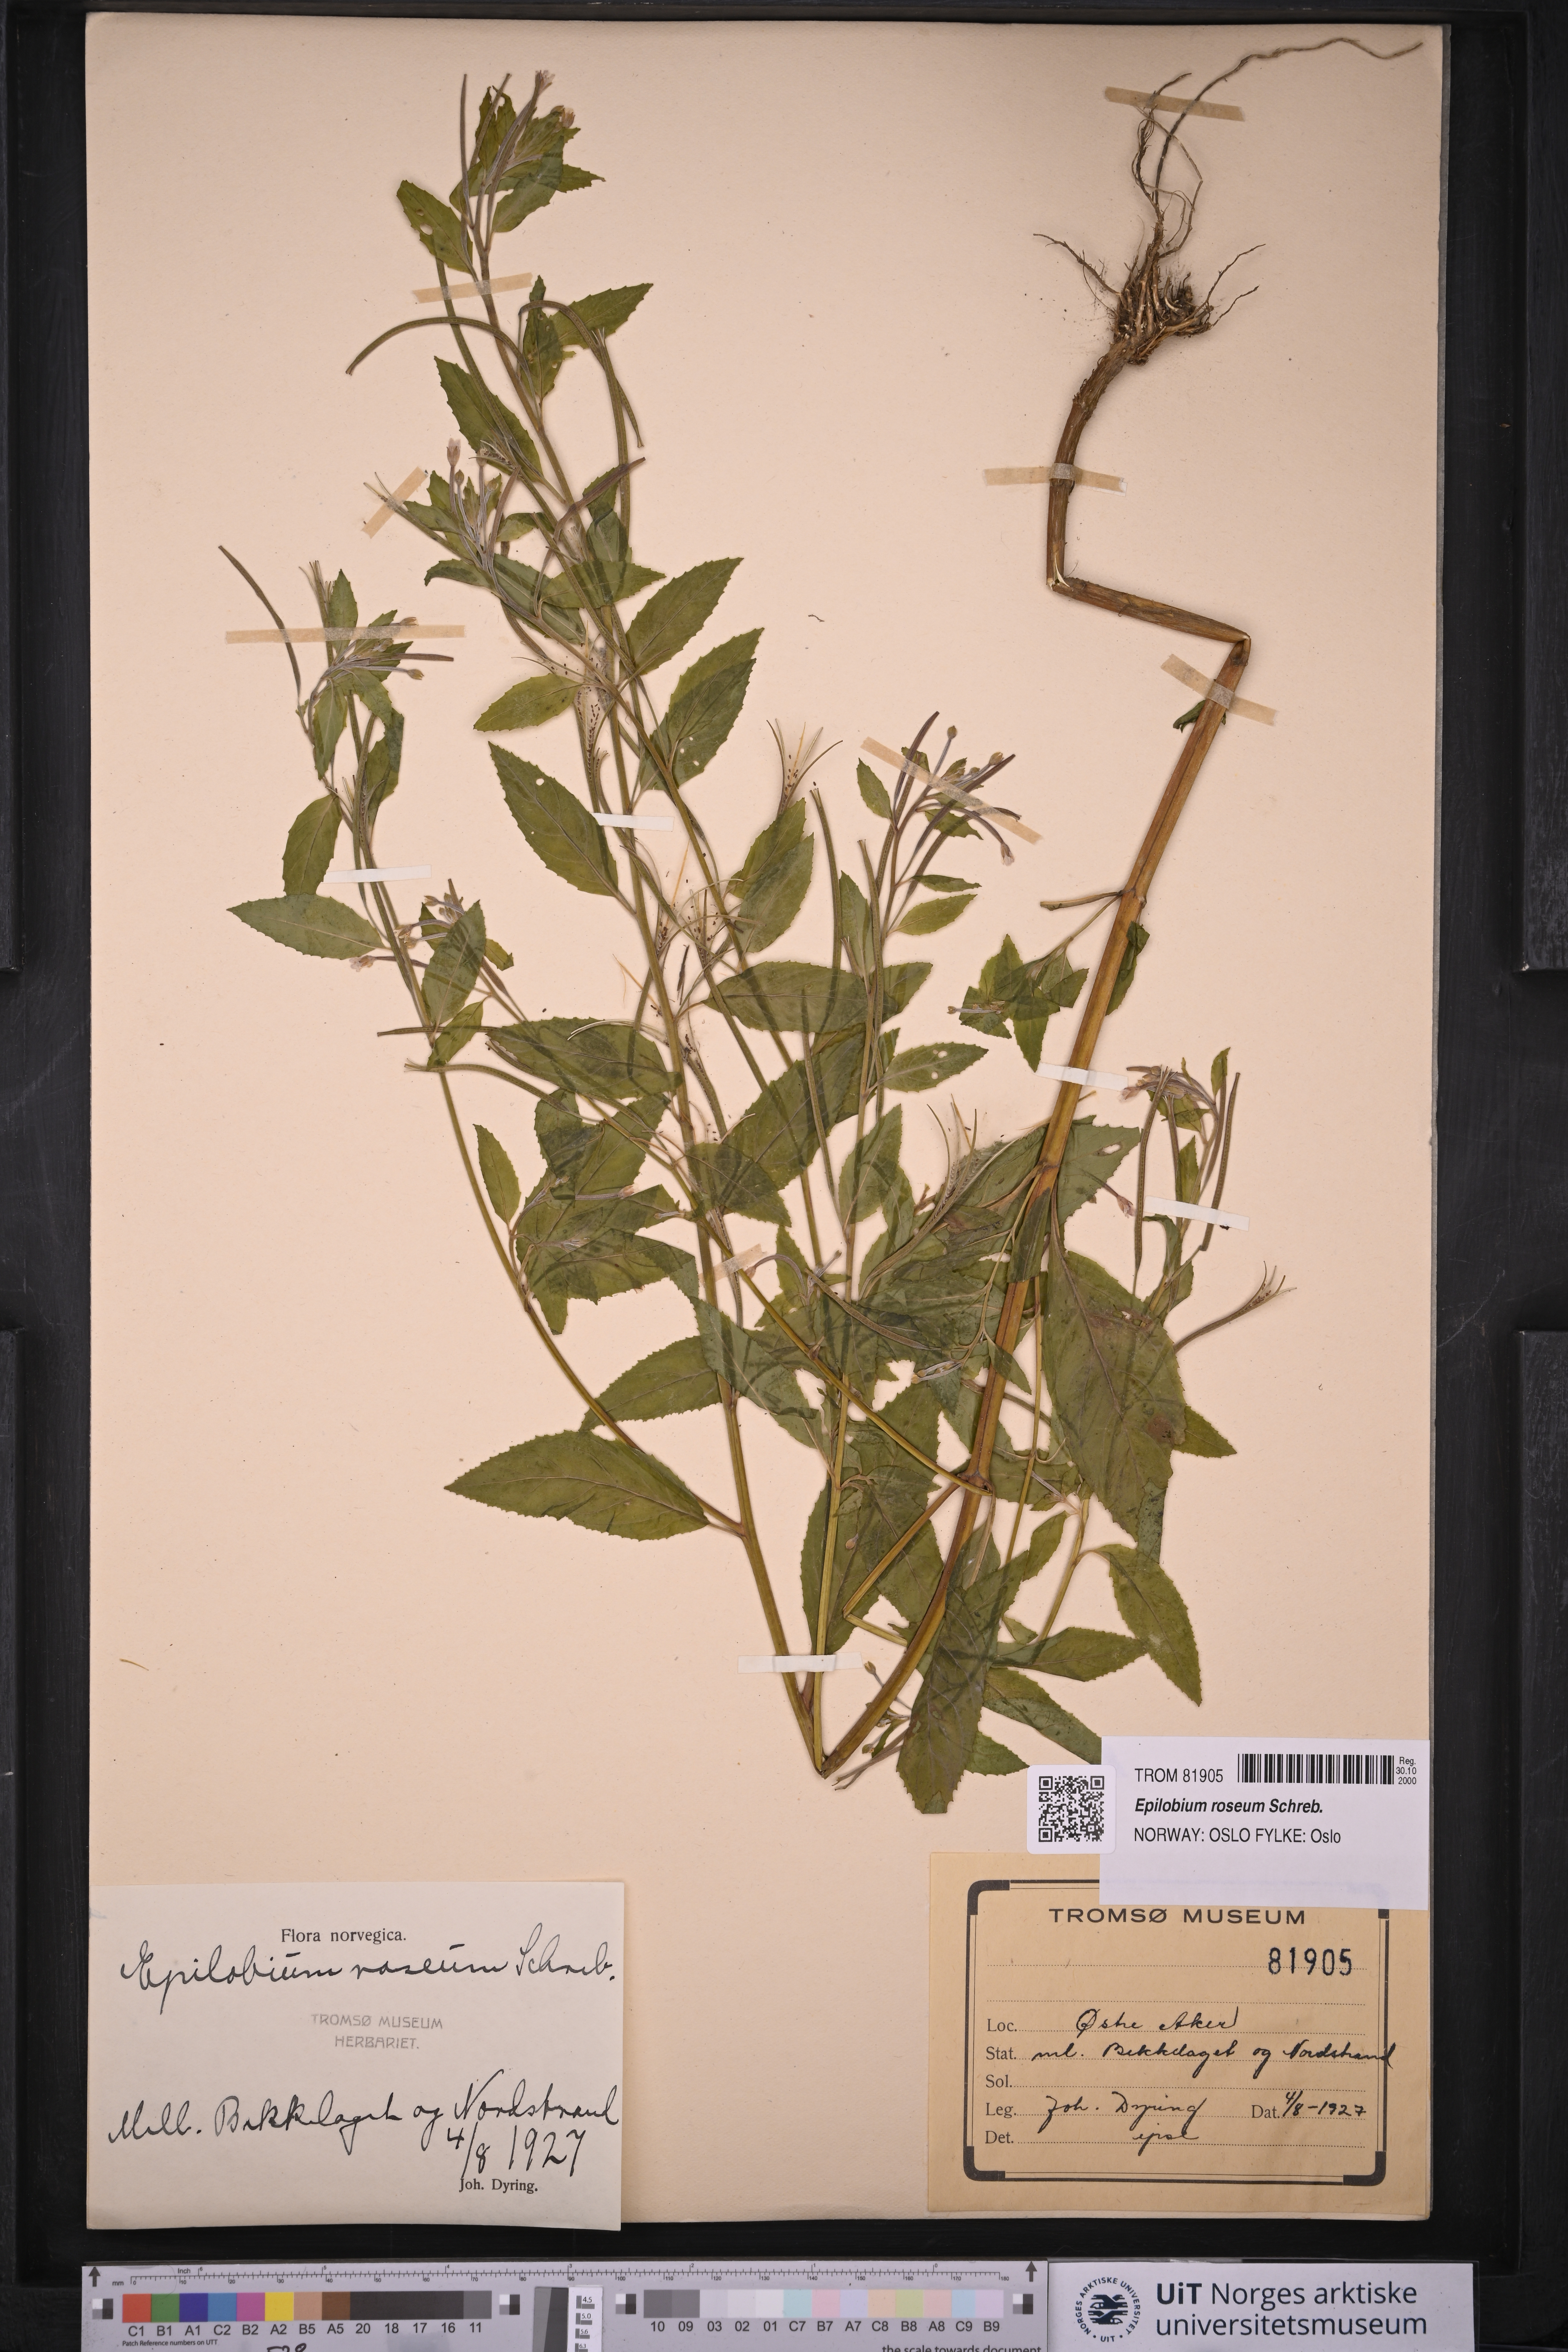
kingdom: Plantae
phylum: Tracheophyta
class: Magnoliopsida
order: Myrtales
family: Onagraceae
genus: Epilobium
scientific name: Epilobium roseum
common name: Pale willowherb
